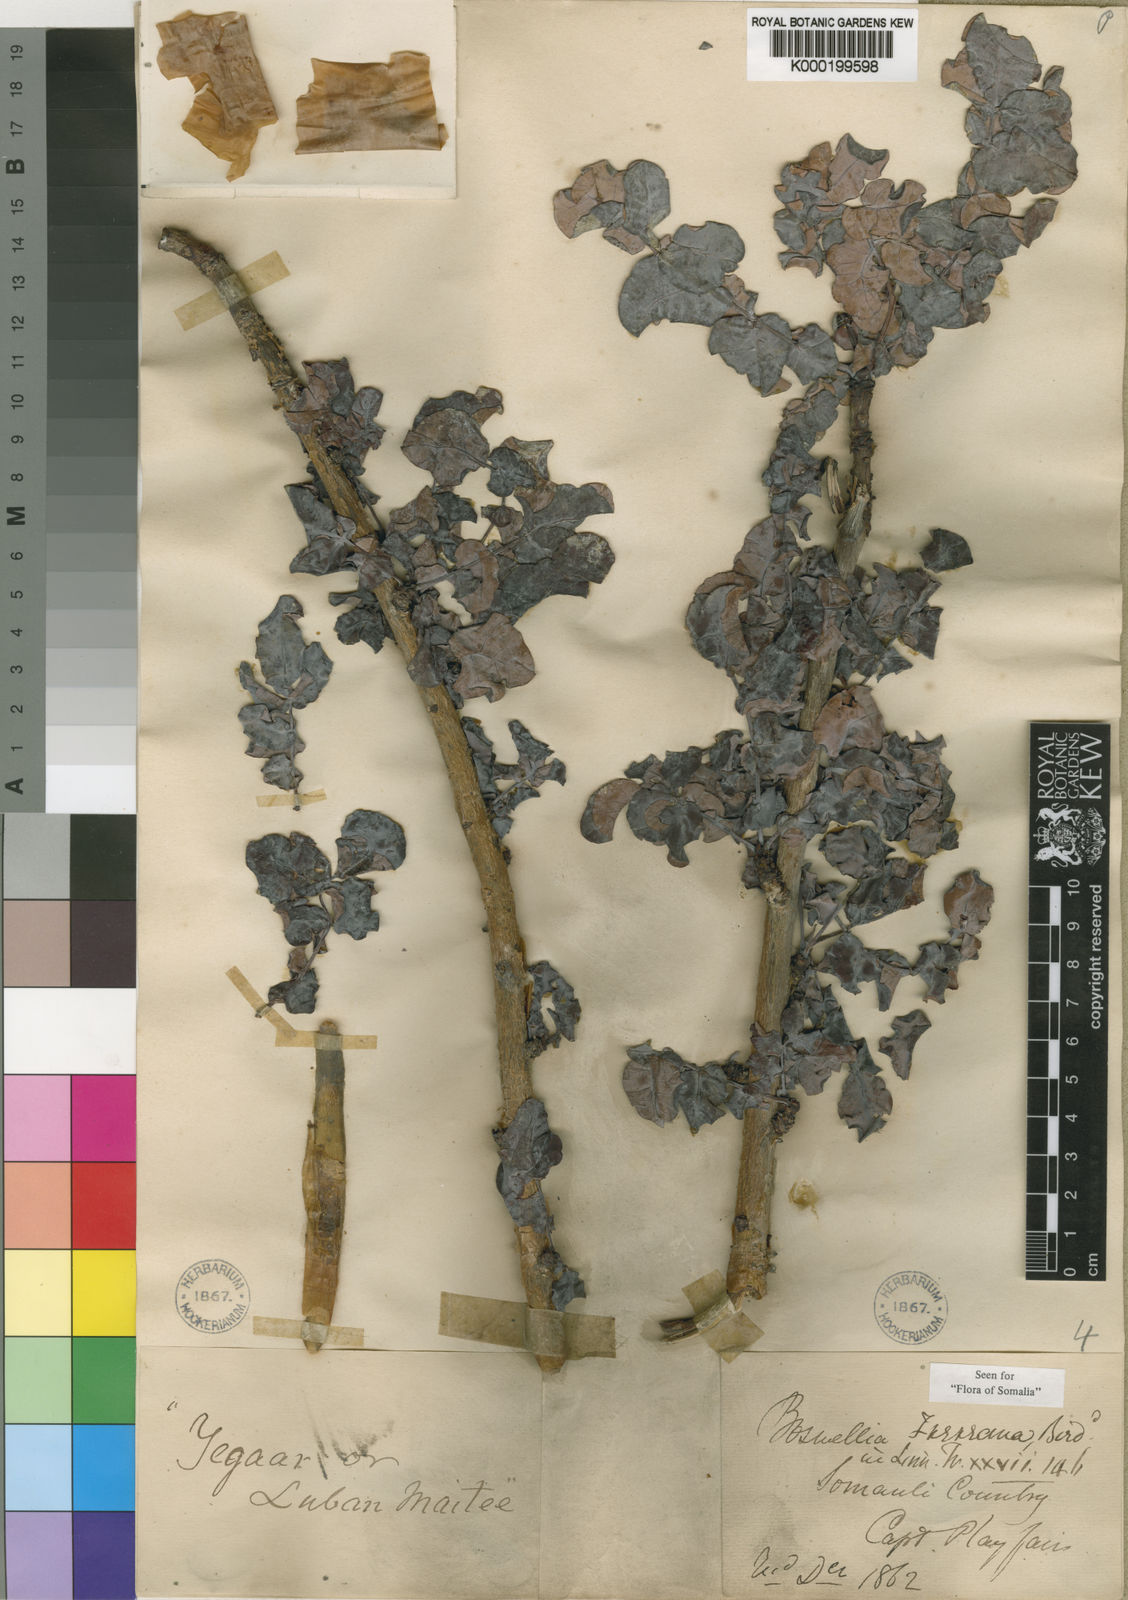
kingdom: Plantae
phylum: Tracheophyta
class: Magnoliopsida
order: Sapindales
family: Burseraceae
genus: Boswellia
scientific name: Boswellia frereana
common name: African elemi
